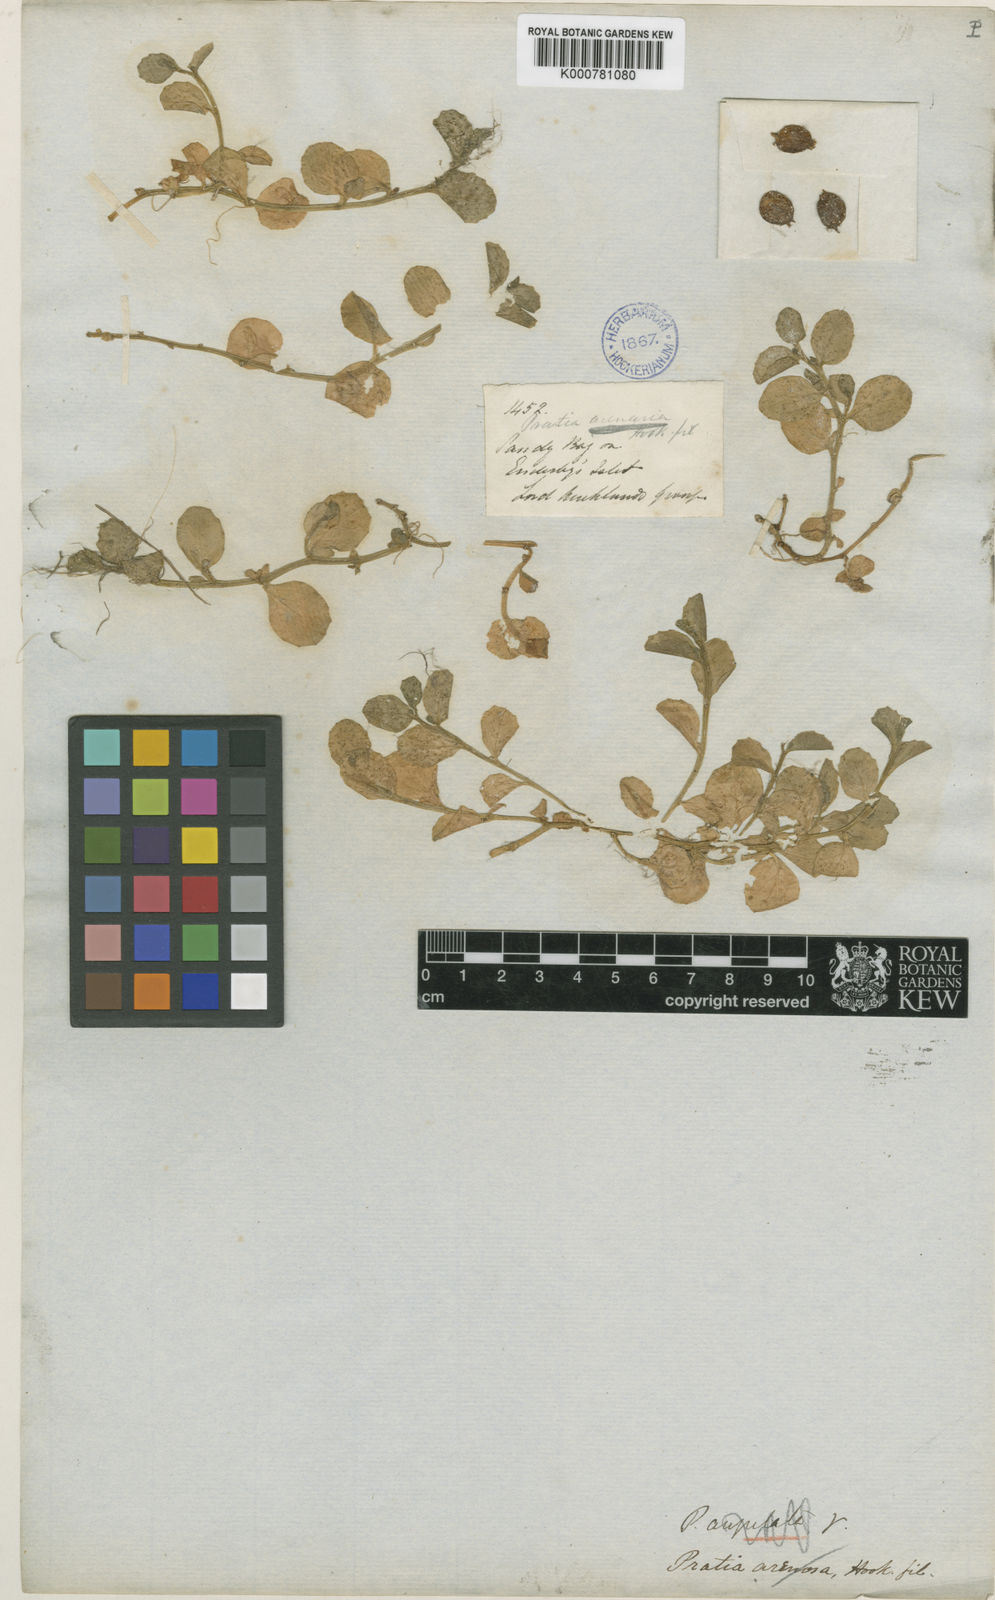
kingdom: Plantae
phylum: Tracheophyta
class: Magnoliopsida
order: Asterales
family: Campanulaceae
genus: Lobelia
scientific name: Lobelia angulata
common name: Lawn lobelia
